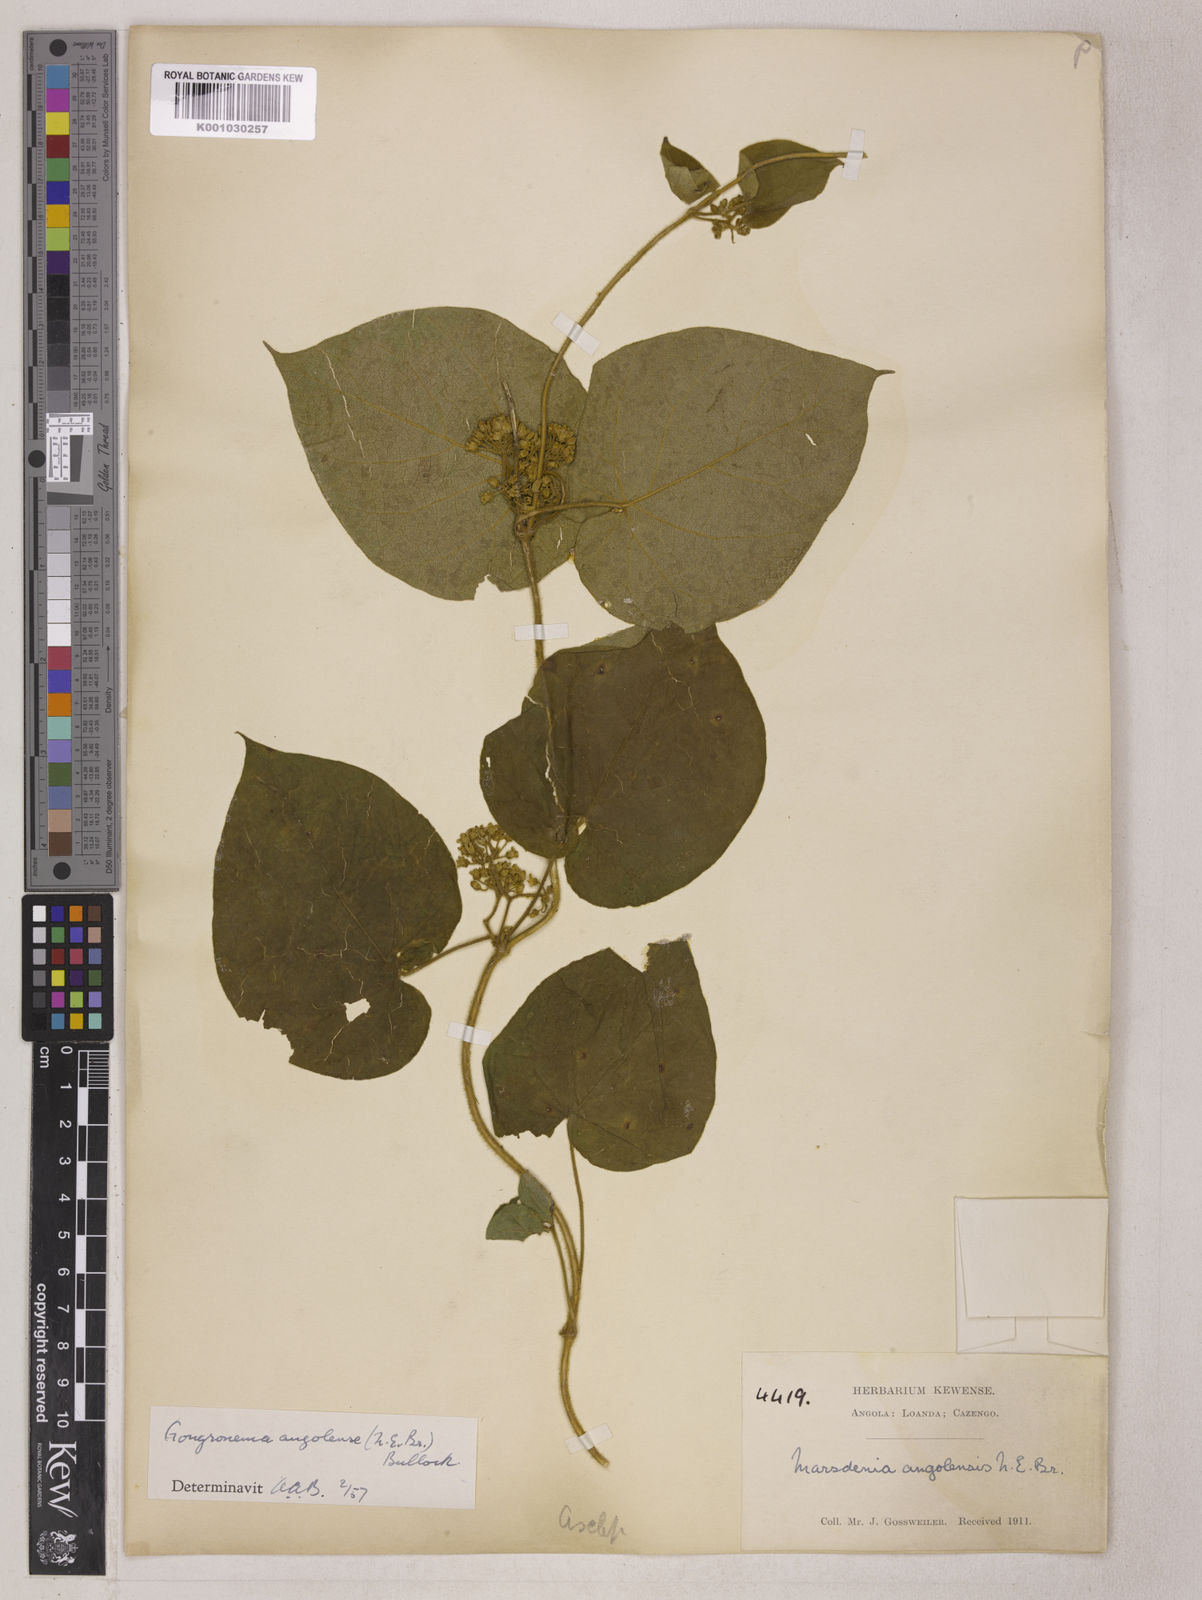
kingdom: Plantae
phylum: Tracheophyta
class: Magnoliopsida
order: Gentianales
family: Apocynaceae
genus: Gongronemopsis
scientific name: Gongronemopsis angolensis
